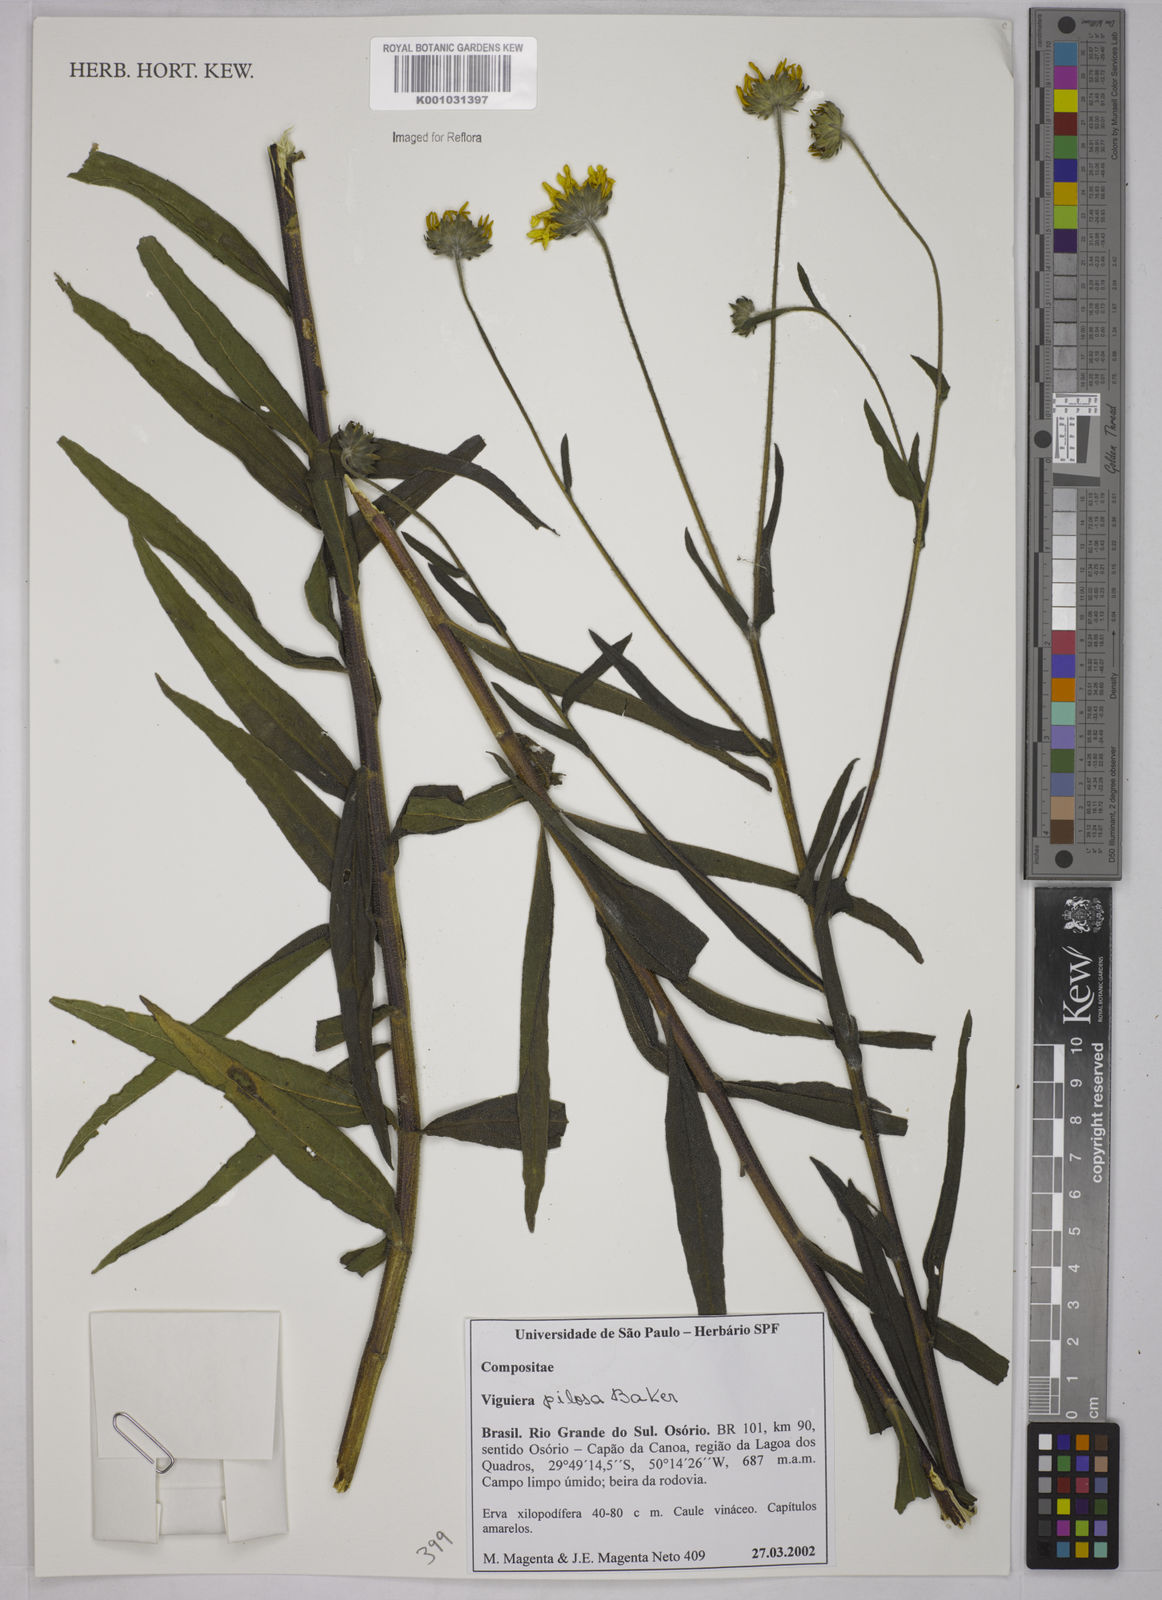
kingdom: Plantae
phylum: Tracheophyta
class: Magnoliopsida
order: Asterales
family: Asteraceae
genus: Aldama
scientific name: Aldama pilosa
